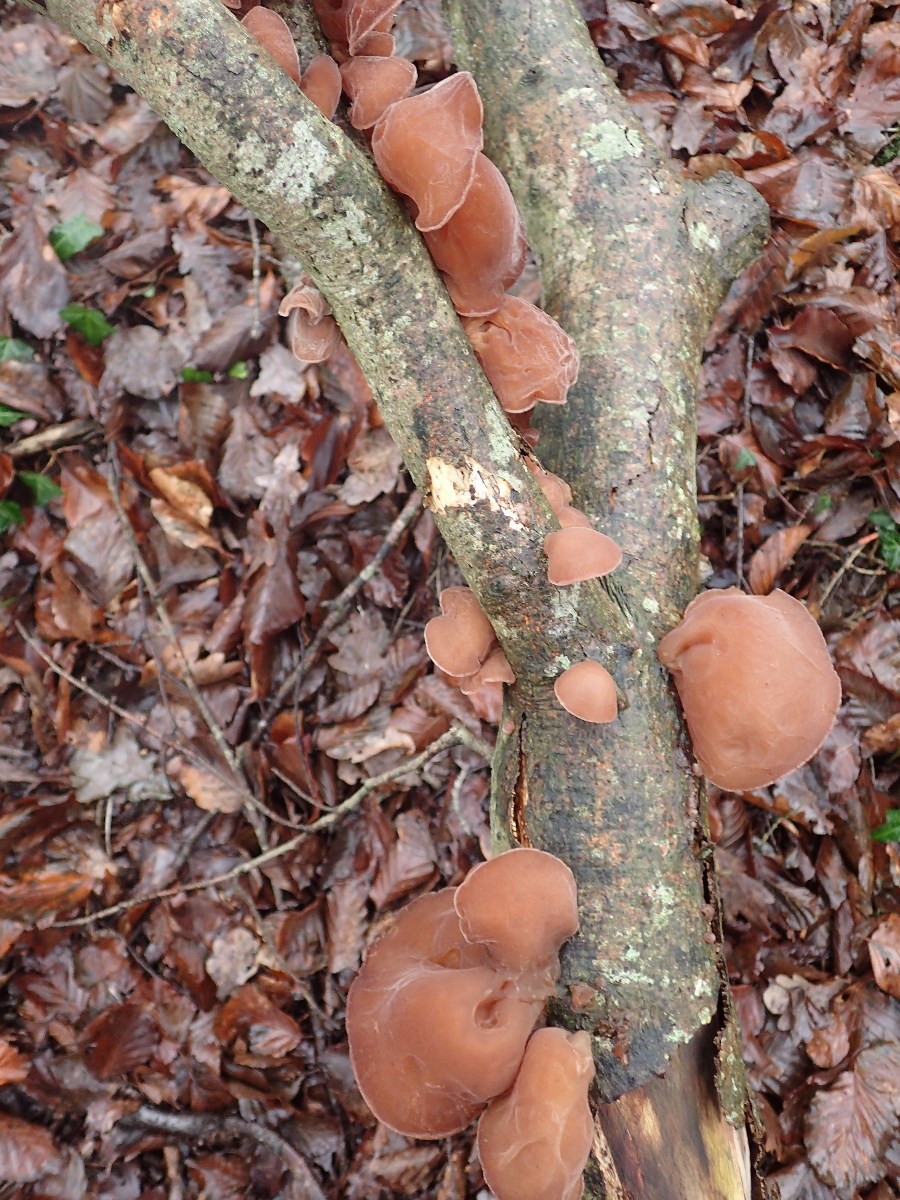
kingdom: Fungi
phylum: Basidiomycota
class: Agaricomycetes
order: Auriculariales
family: Auriculariaceae
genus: Auricularia
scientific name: Auricularia auricula-judae
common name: almindelig judasøre
